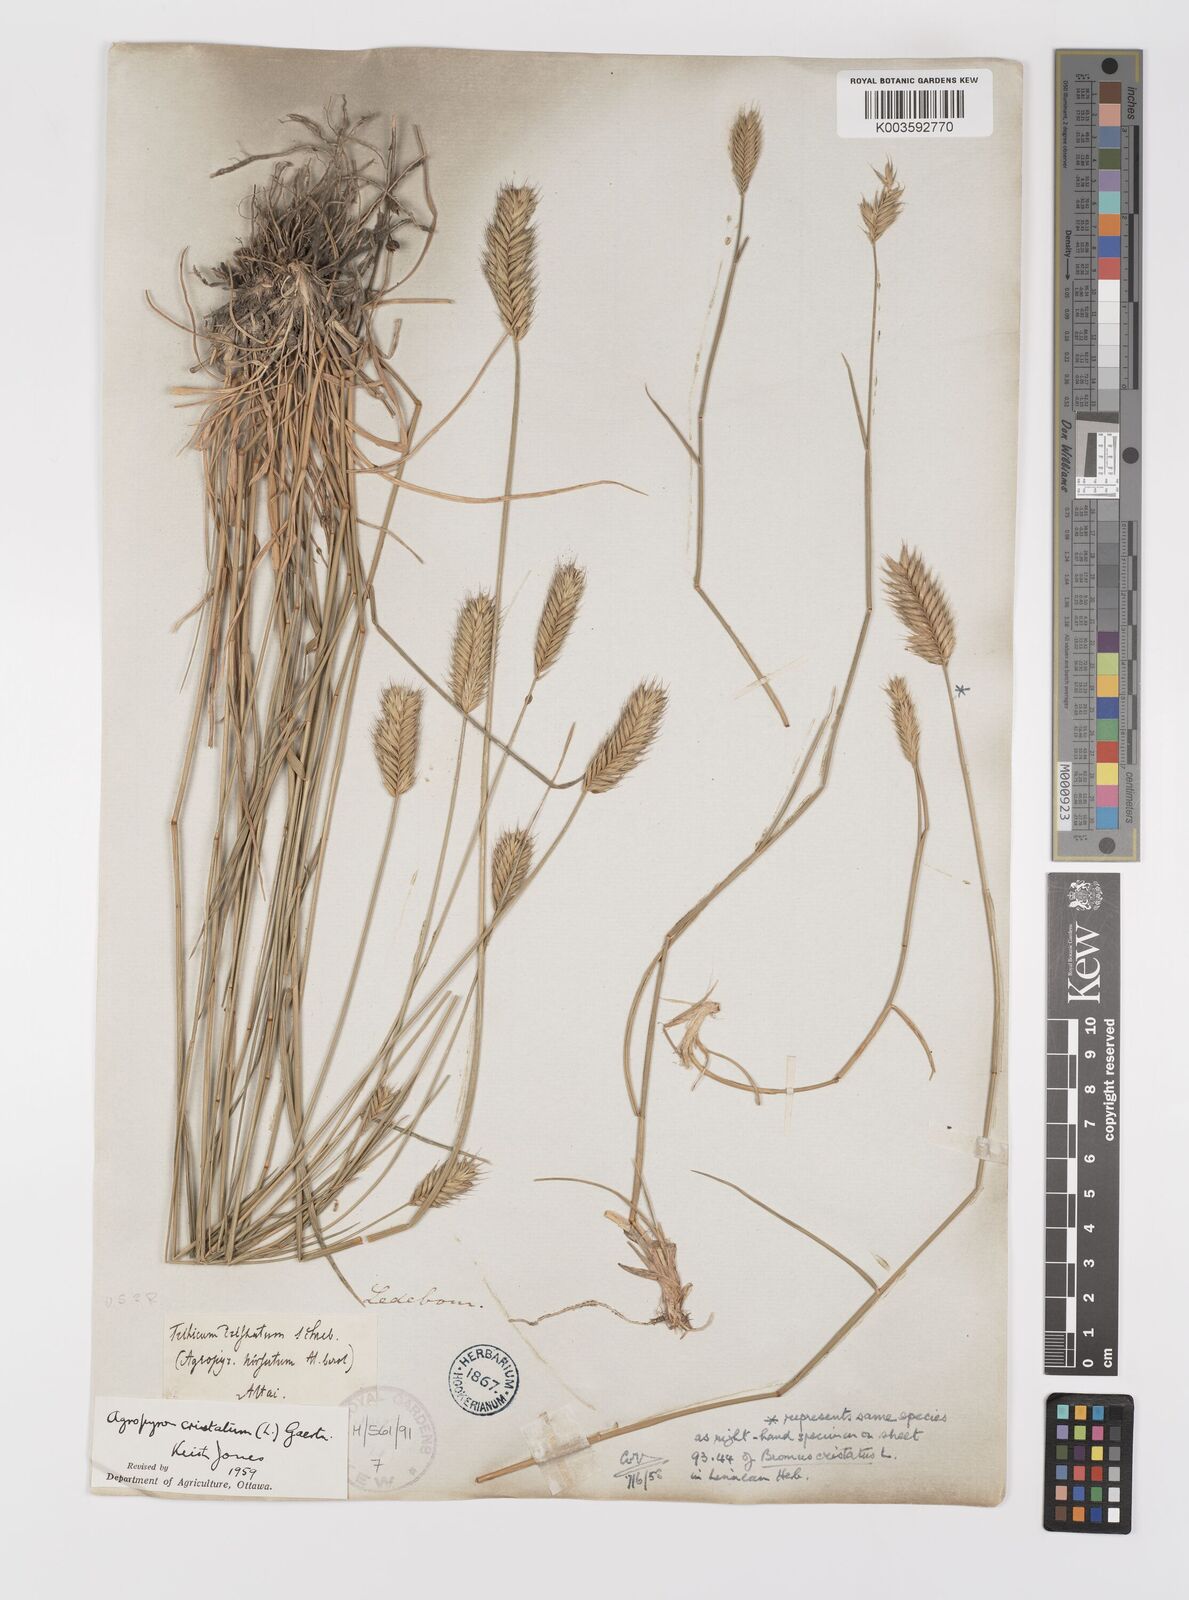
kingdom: Plantae
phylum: Tracheophyta
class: Liliopsida
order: Poales
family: Poaceae
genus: Agropyron
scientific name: Agropyron cristatum
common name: Crested wheatgrass
